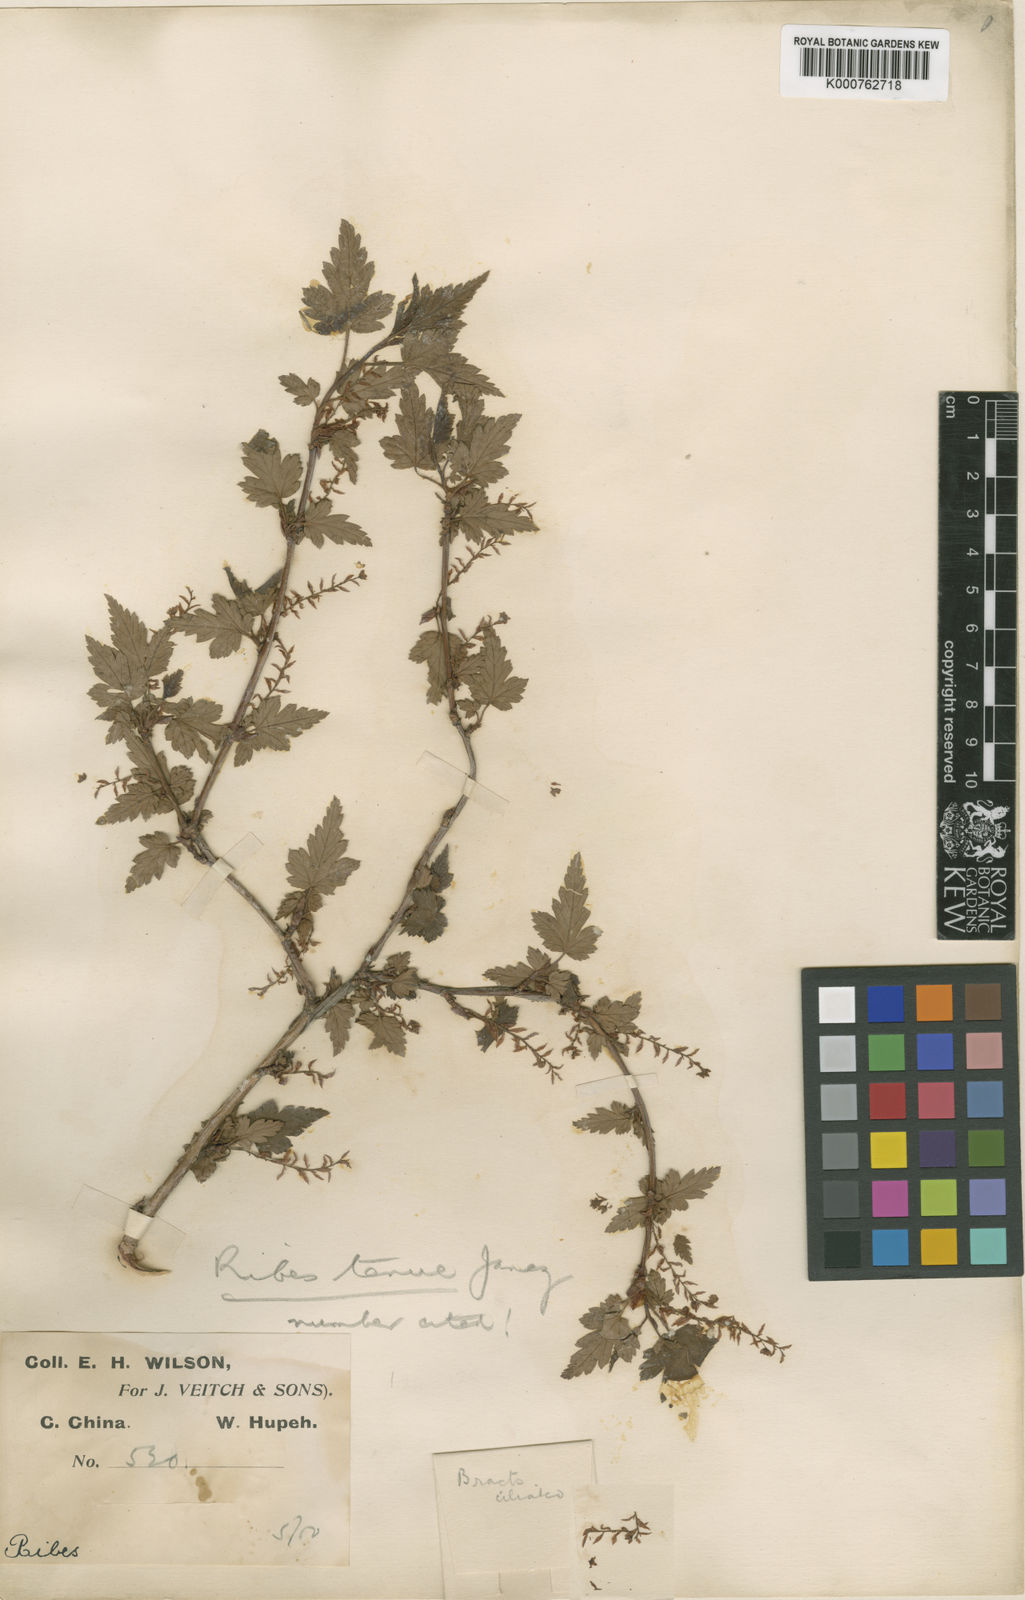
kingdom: Plantae
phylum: Tracheophyta
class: Magnoliopsida
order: Saxifragales
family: Grossulariaceae
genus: Ribes
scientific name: Ribes tenue
